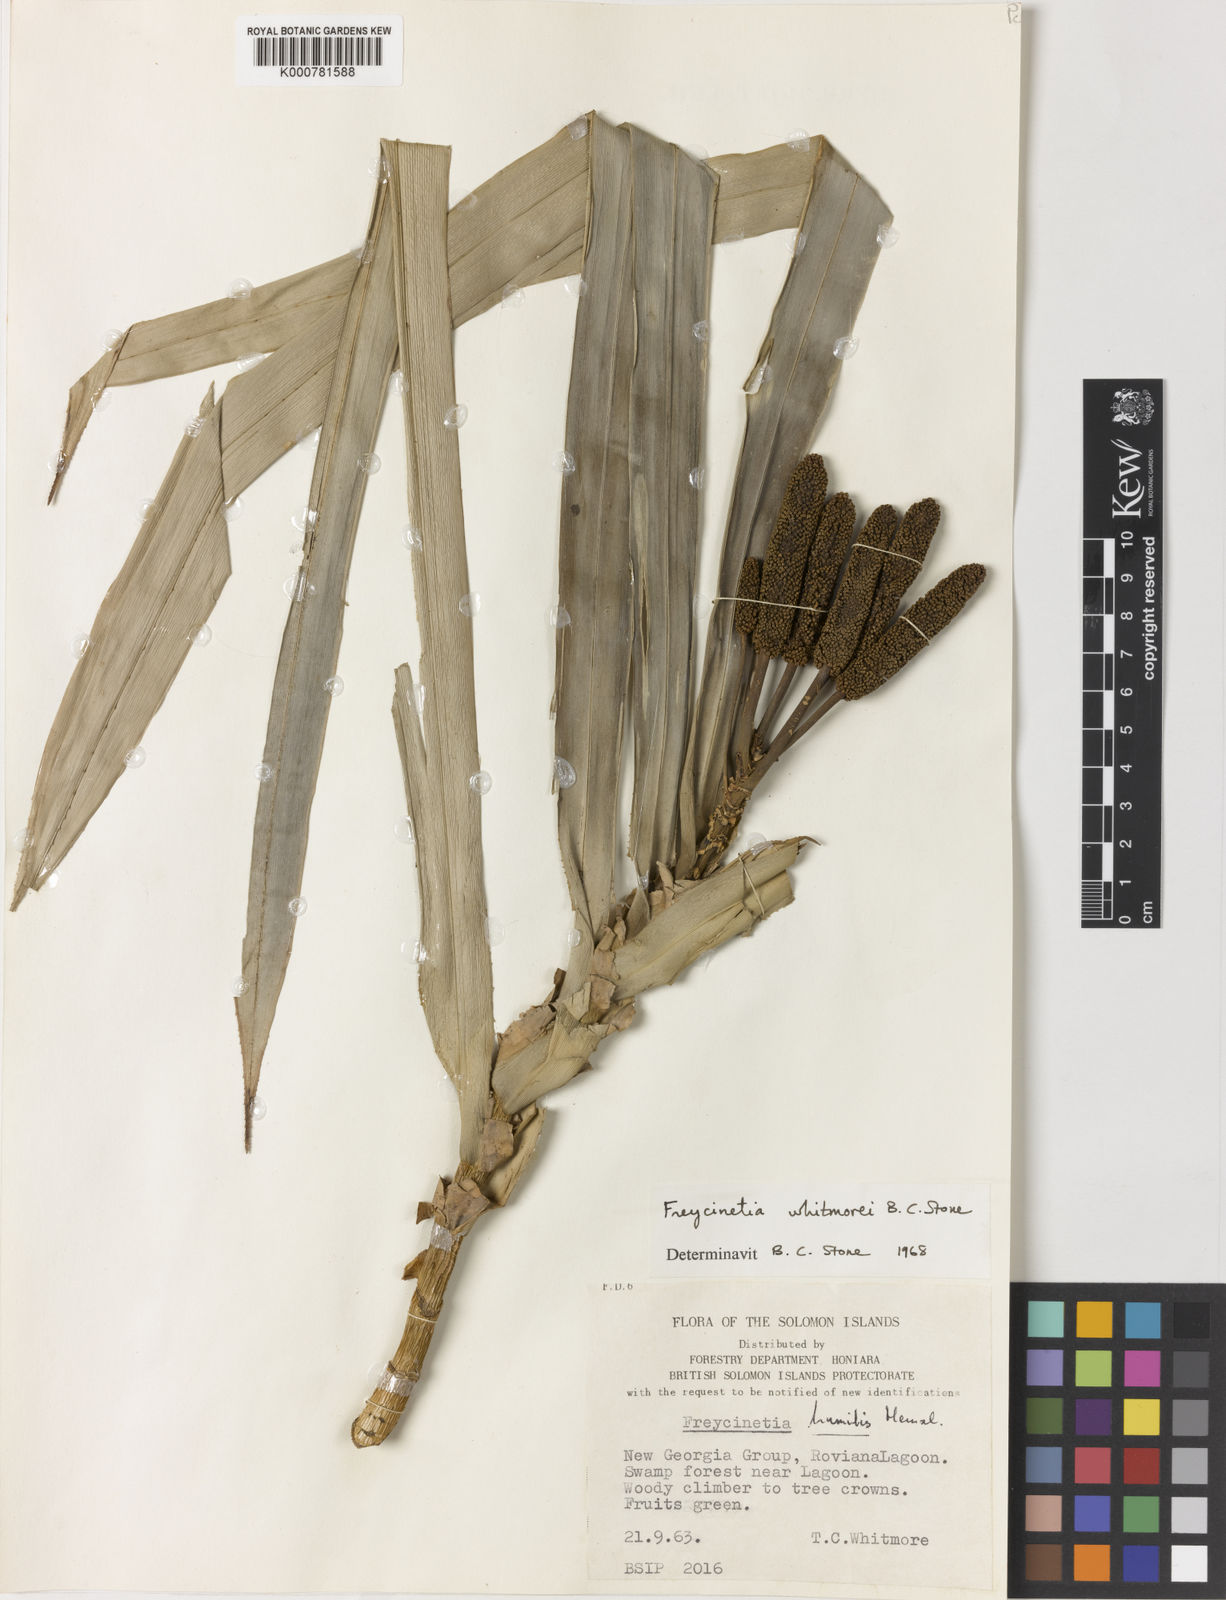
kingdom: Plantae
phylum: Tracheophyta
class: Liliopsida
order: Pandanales
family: Pandanaceae
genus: Freycinetia
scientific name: Freycinetia whitmorei
